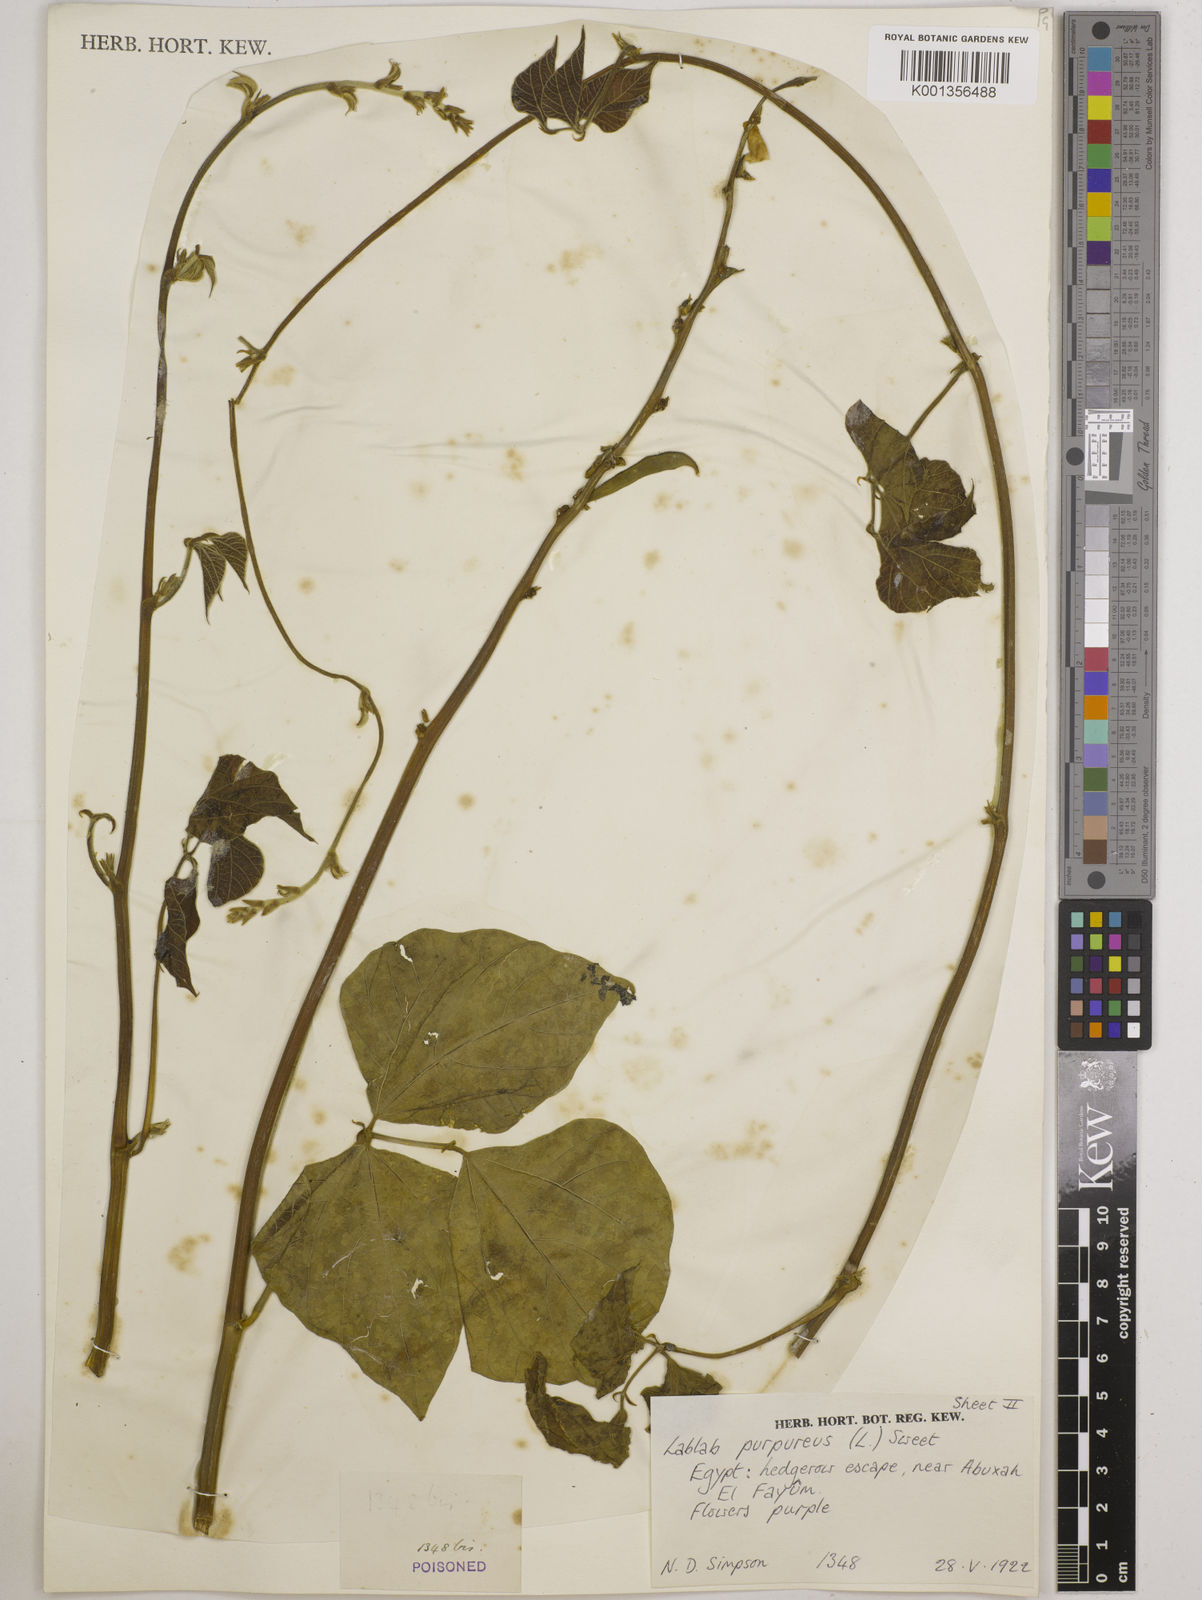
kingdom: Plantae
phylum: Tracheophyta
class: Magnoliopsida
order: Fabales
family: Fabaceae
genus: Lablab
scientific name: Lablab purpureus
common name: Lablab-bean
